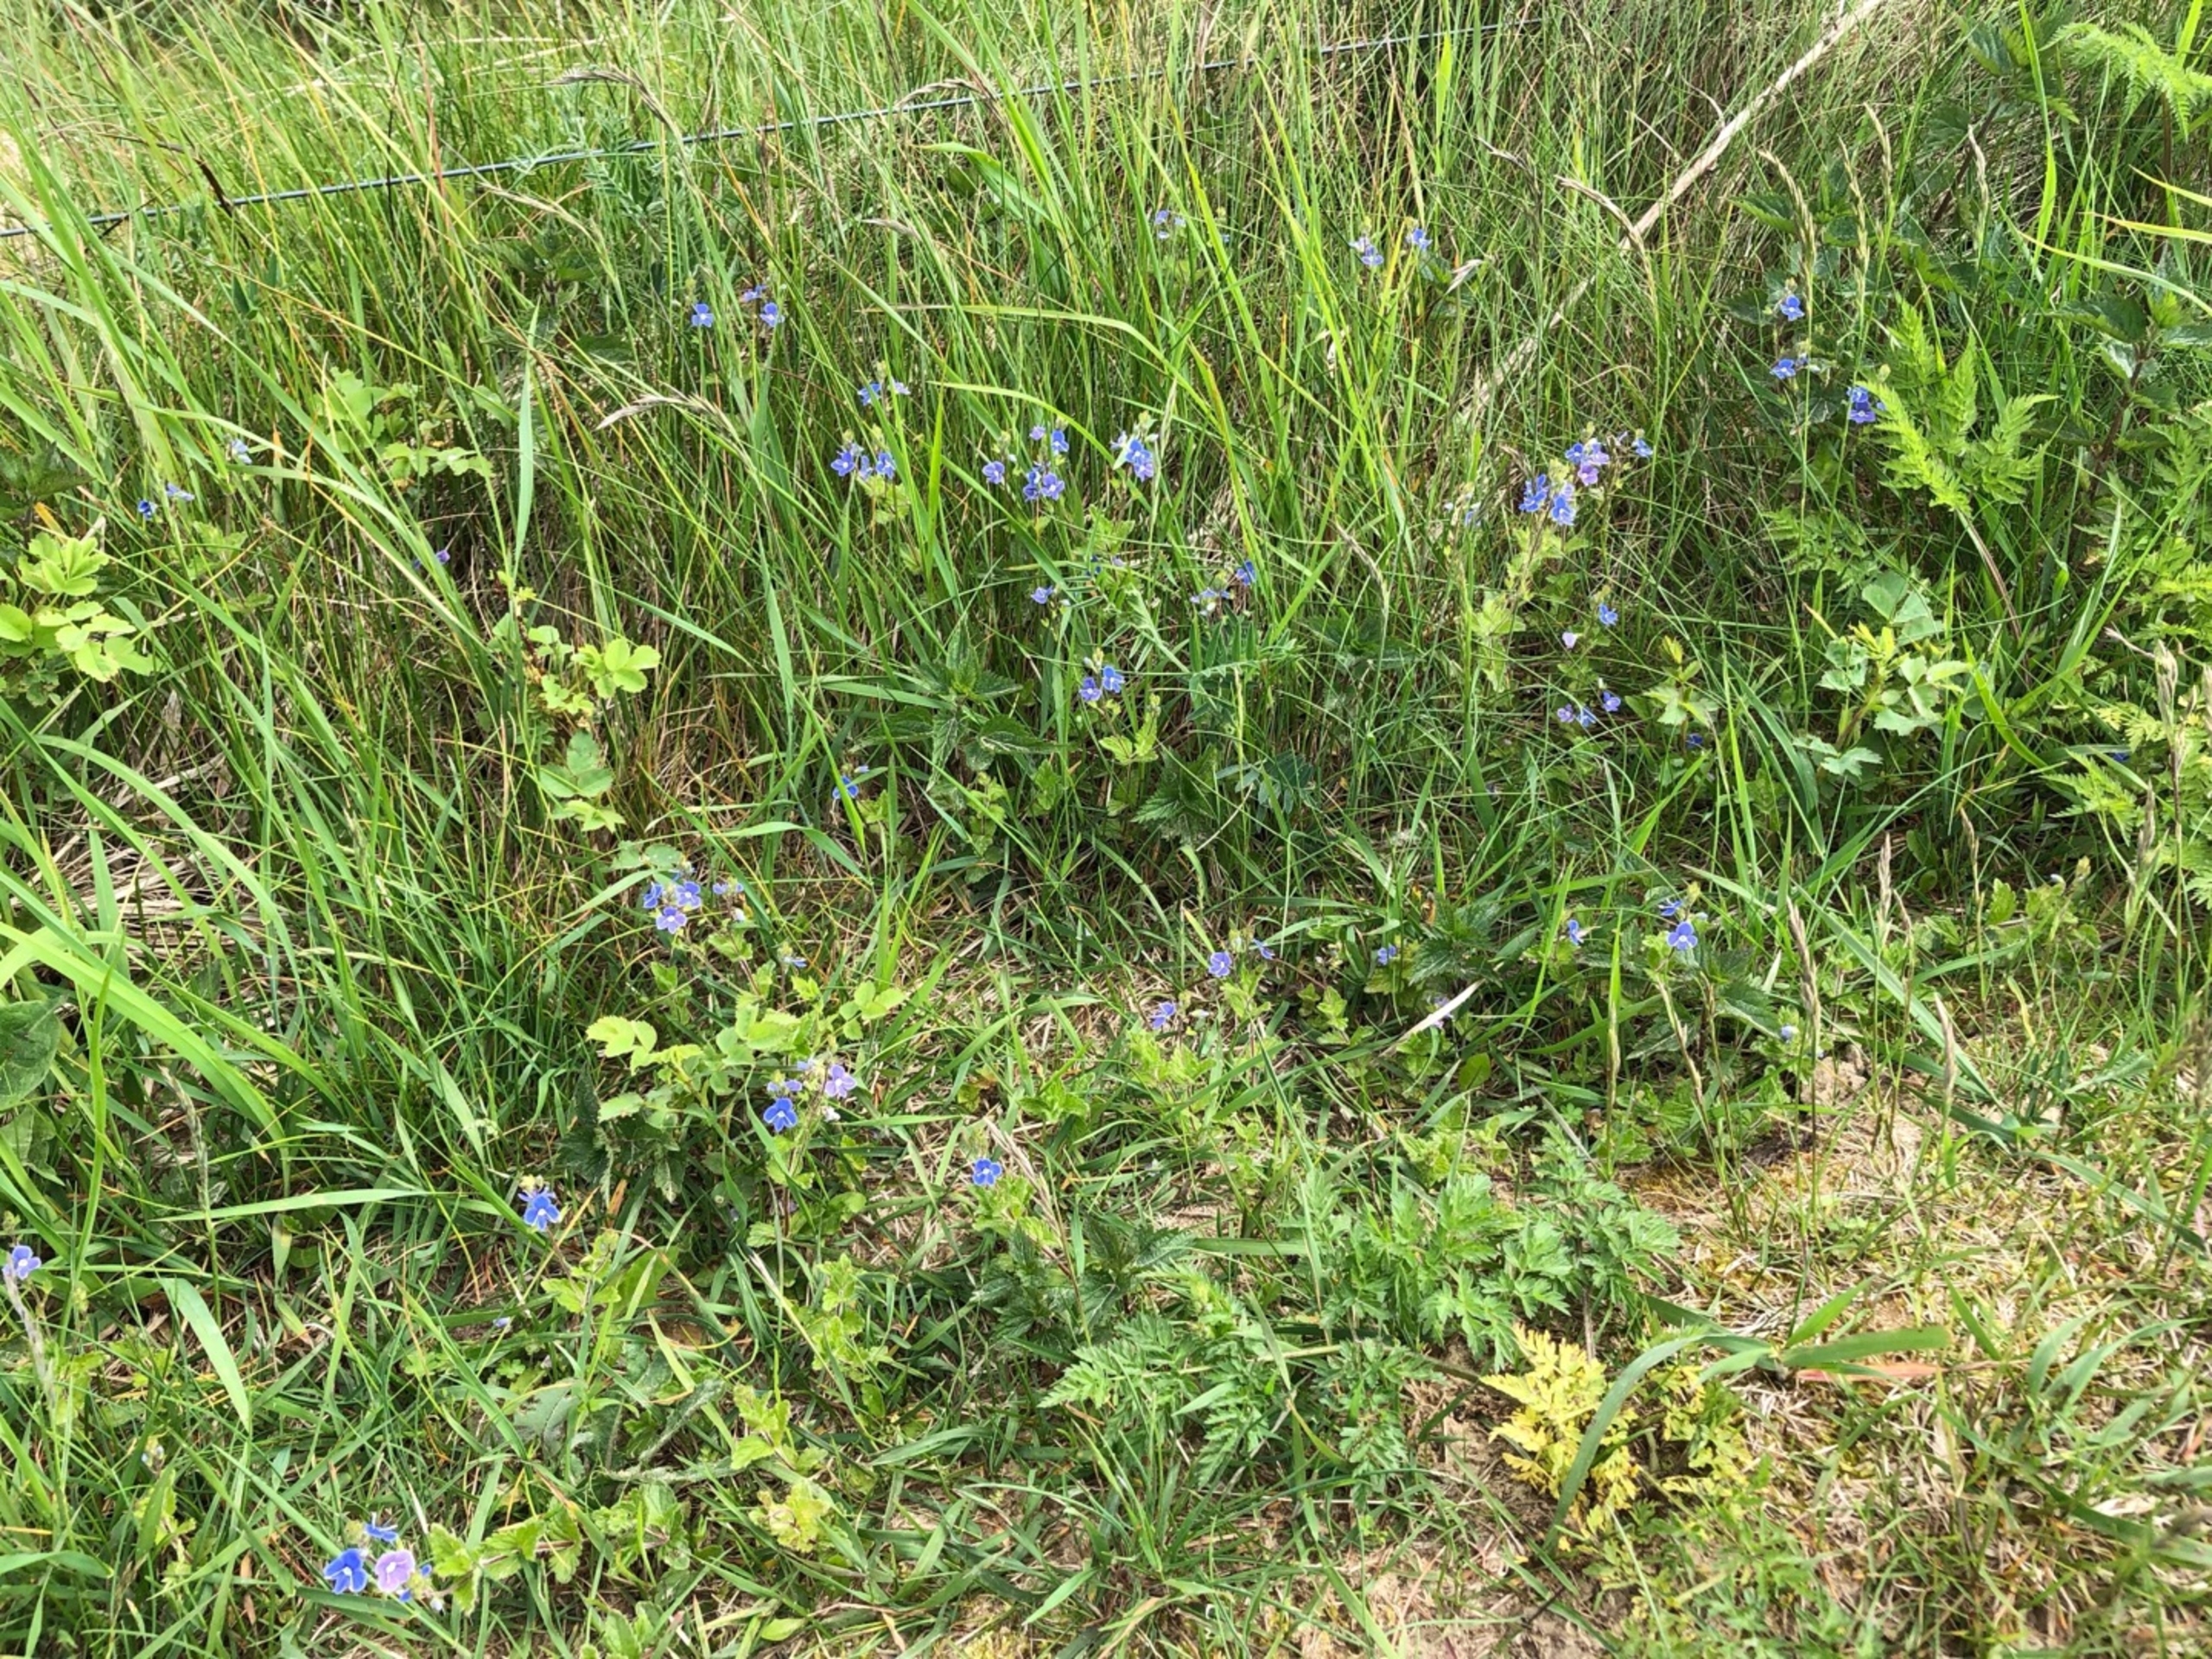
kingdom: Plantae
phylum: Tracheophyta
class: Magnoliopsida
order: Lamiales
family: Plantaginaceae
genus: Veronica
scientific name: Veronica chamaedrys
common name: Tveskægget ærenpris
